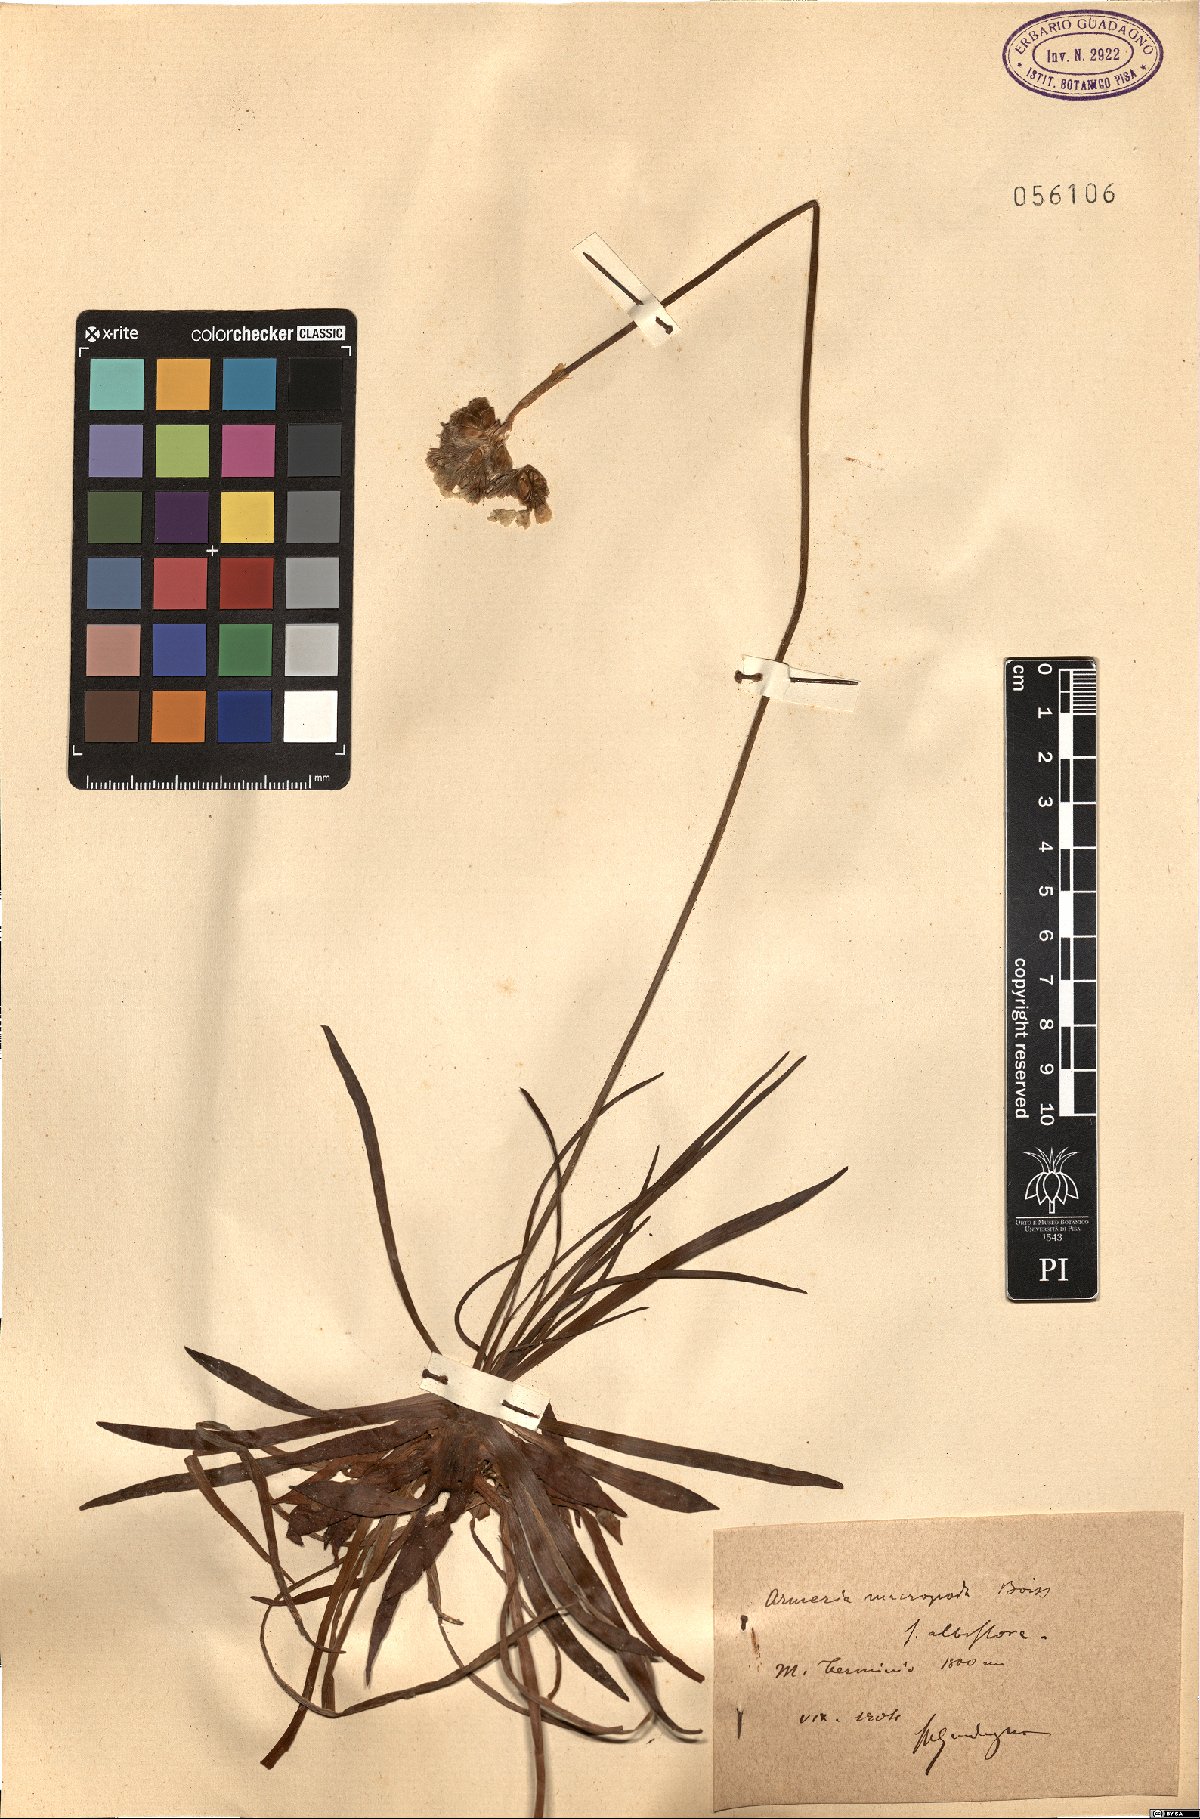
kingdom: Plantae
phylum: Tracheophyta
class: Magnoliopsida
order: Caryophyllales
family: Plumbaginaceae
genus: Armeria
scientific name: Armeria macropoda
